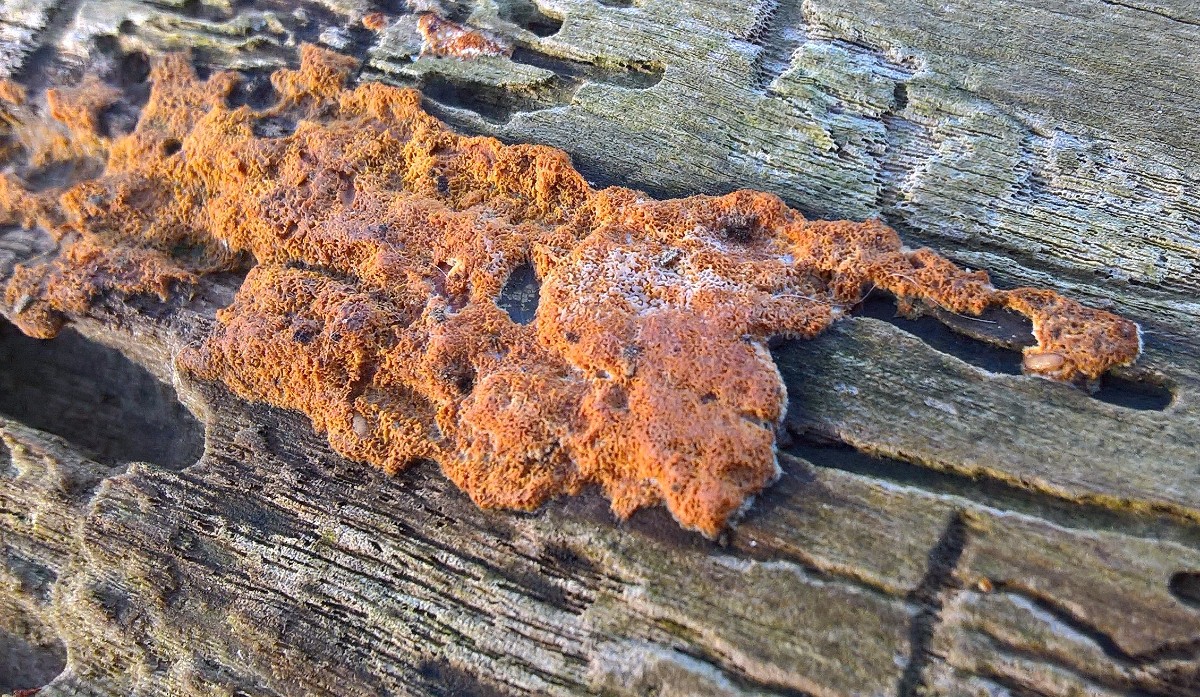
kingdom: Fungi
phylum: Basidiomycota
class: Agaricomycetes
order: Hymenochaetales
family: Hymenochaetaceae
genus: Fuscoporia
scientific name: Fuscoporia ferrea
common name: skorpe-ildporesvamp
